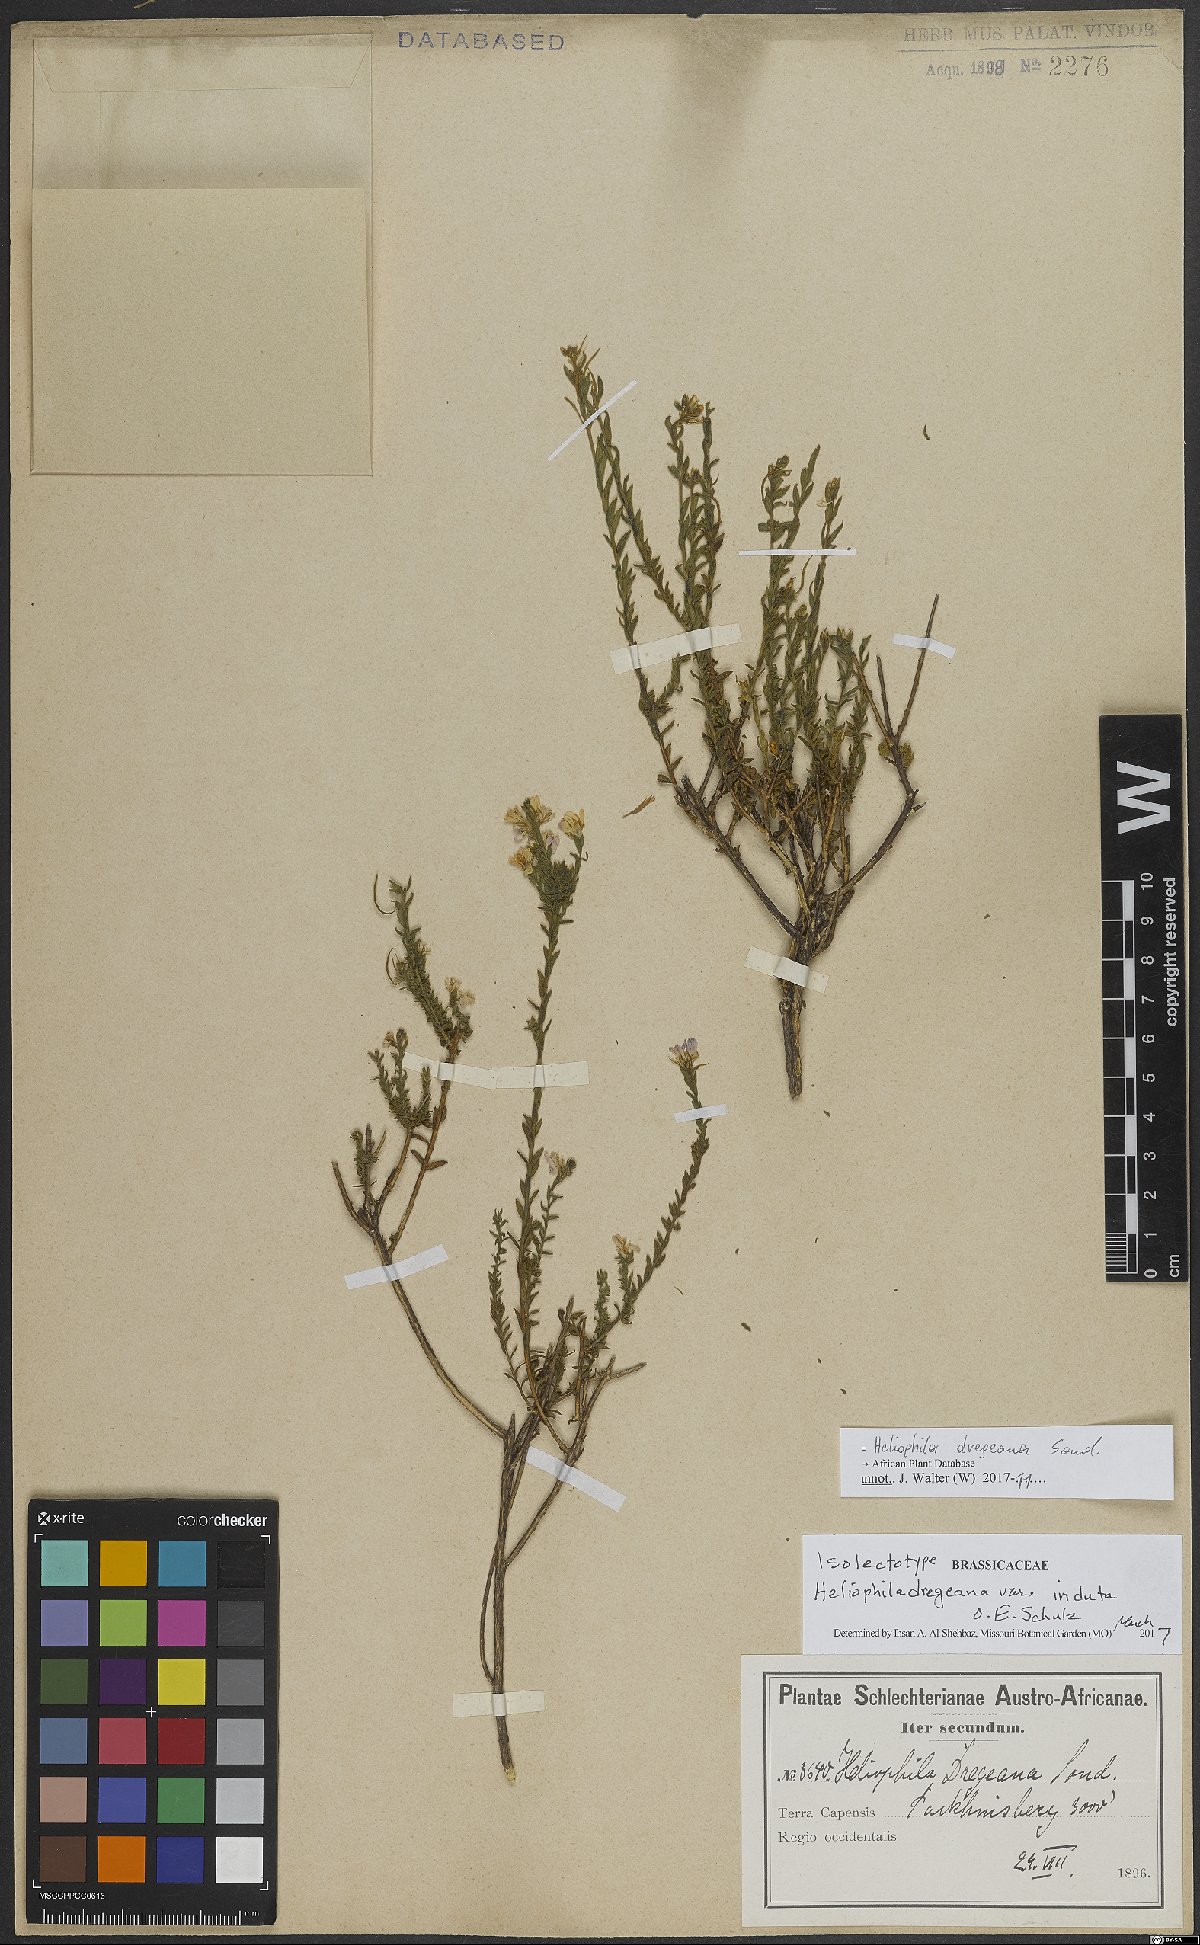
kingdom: Plantae
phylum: Tracheophyta
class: Magnoliopsida
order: Brassicales
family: Brassicaceae
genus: Heliophila
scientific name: Heliophila dregeana
